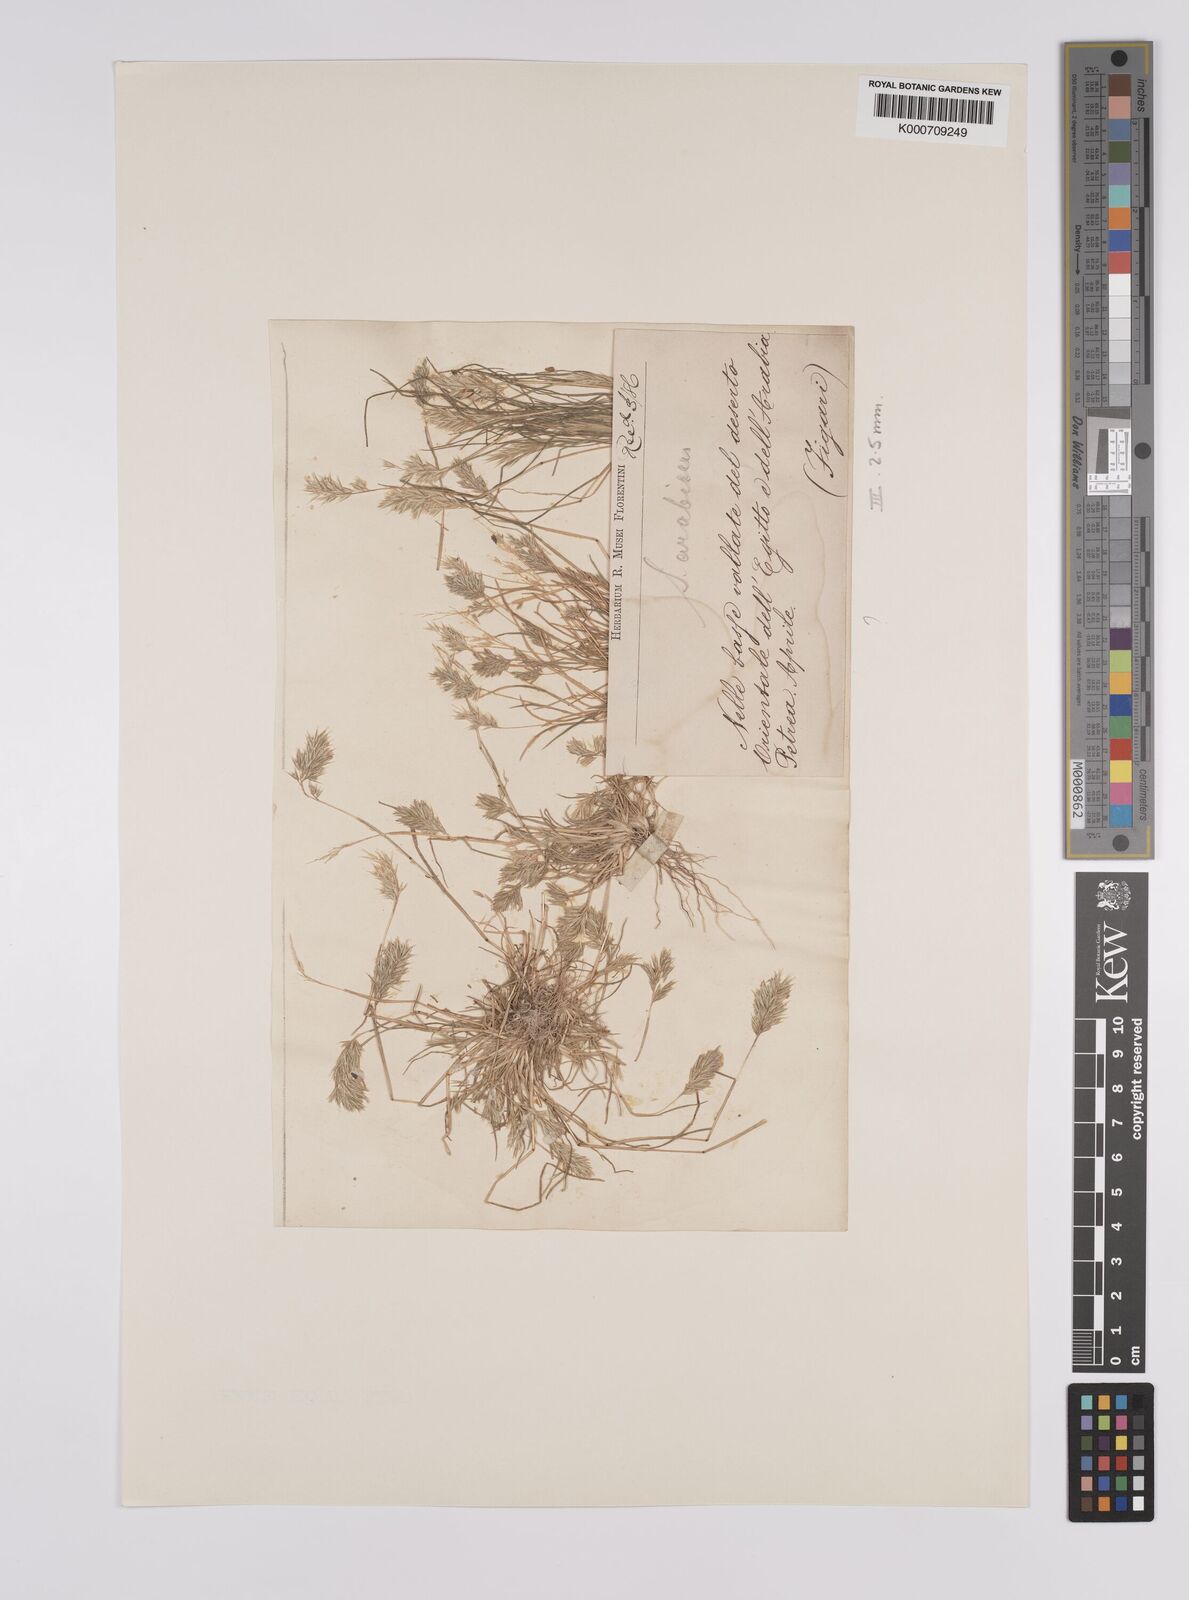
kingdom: Plantae
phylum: Tracheophyta
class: Liliopsida
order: Poales
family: Poaceae
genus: Schismus
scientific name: Schismus barbatus
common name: Kelch-grass
